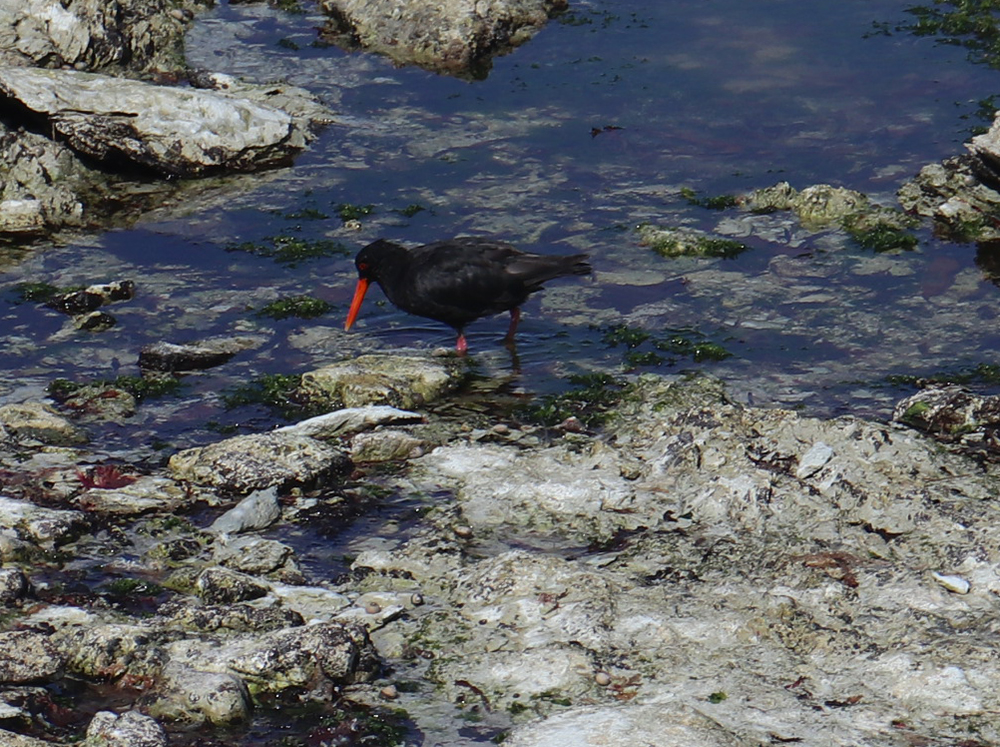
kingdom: Animalia
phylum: Chordata
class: Aves
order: Charadriiformes
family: Haematopodidae
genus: Haematopus
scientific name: Haematopus unicolor
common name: Variable oystercatcher
